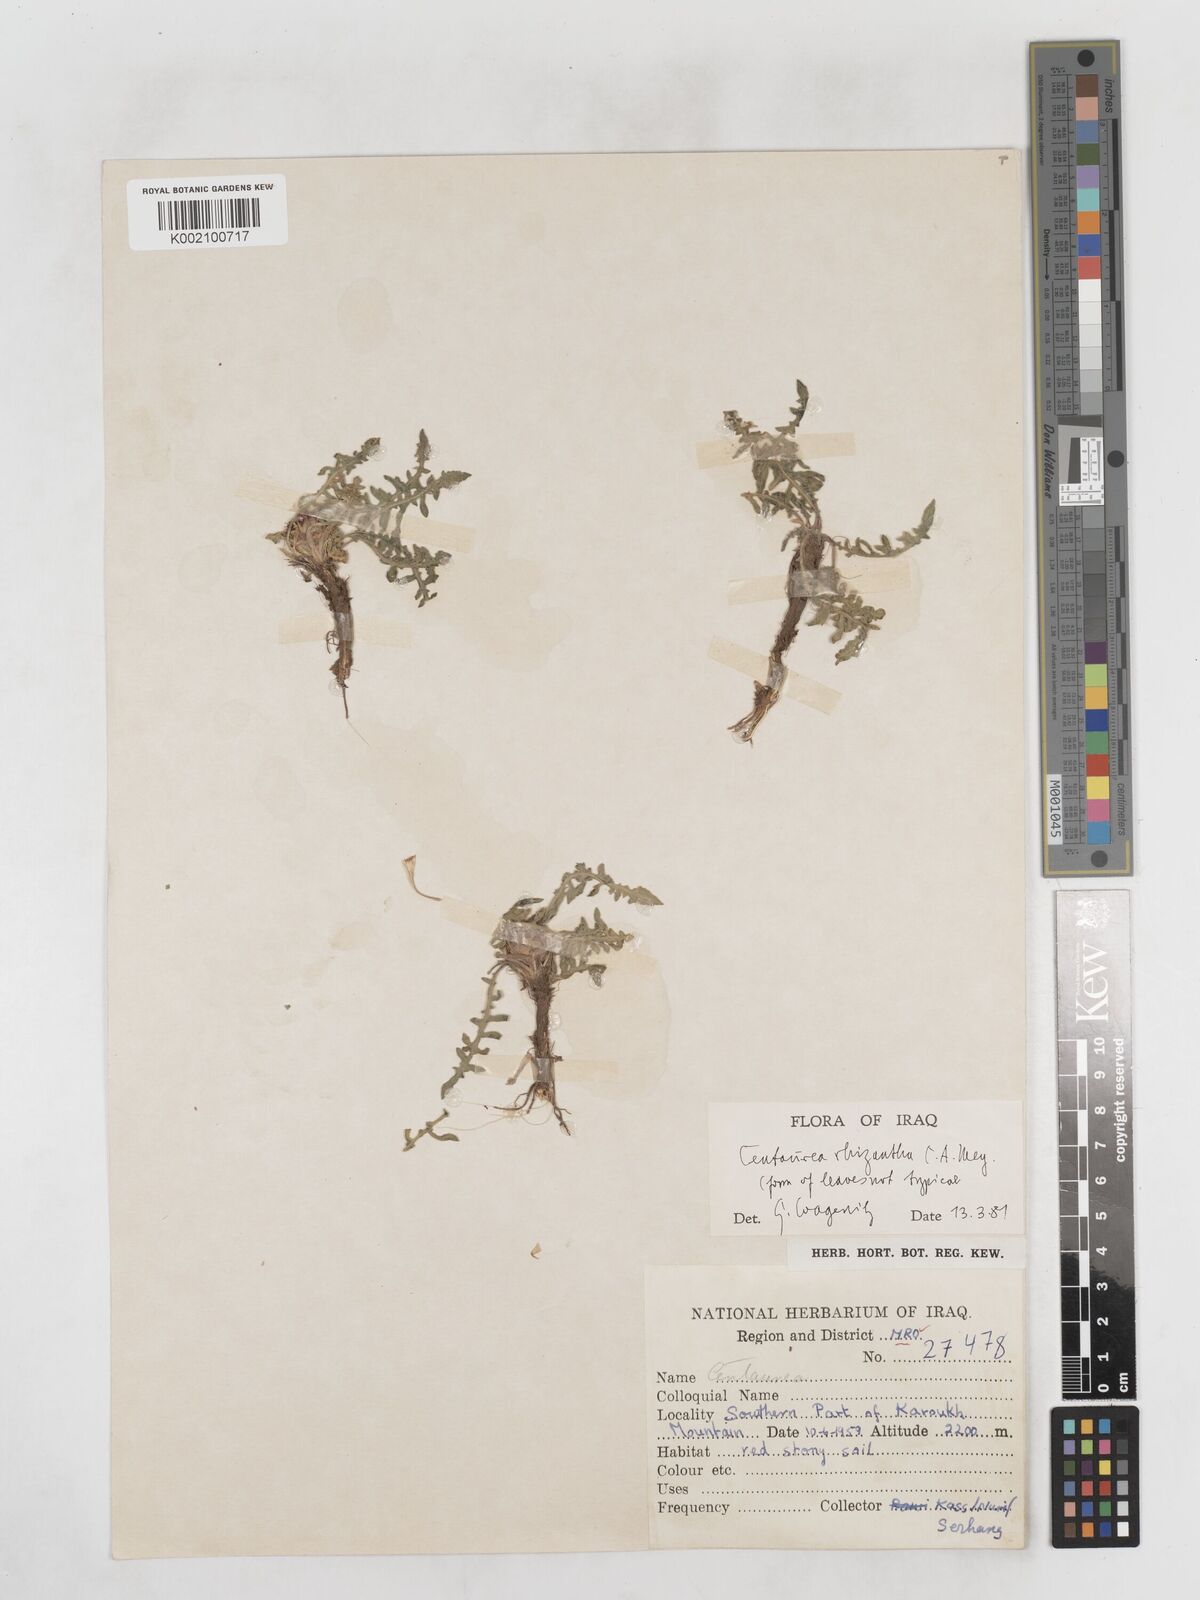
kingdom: Plantae
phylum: Tracheophyta
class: Magnoliopsida
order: Asterales
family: Asteraceae
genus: Centaurea
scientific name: Centaurea rhizantha
